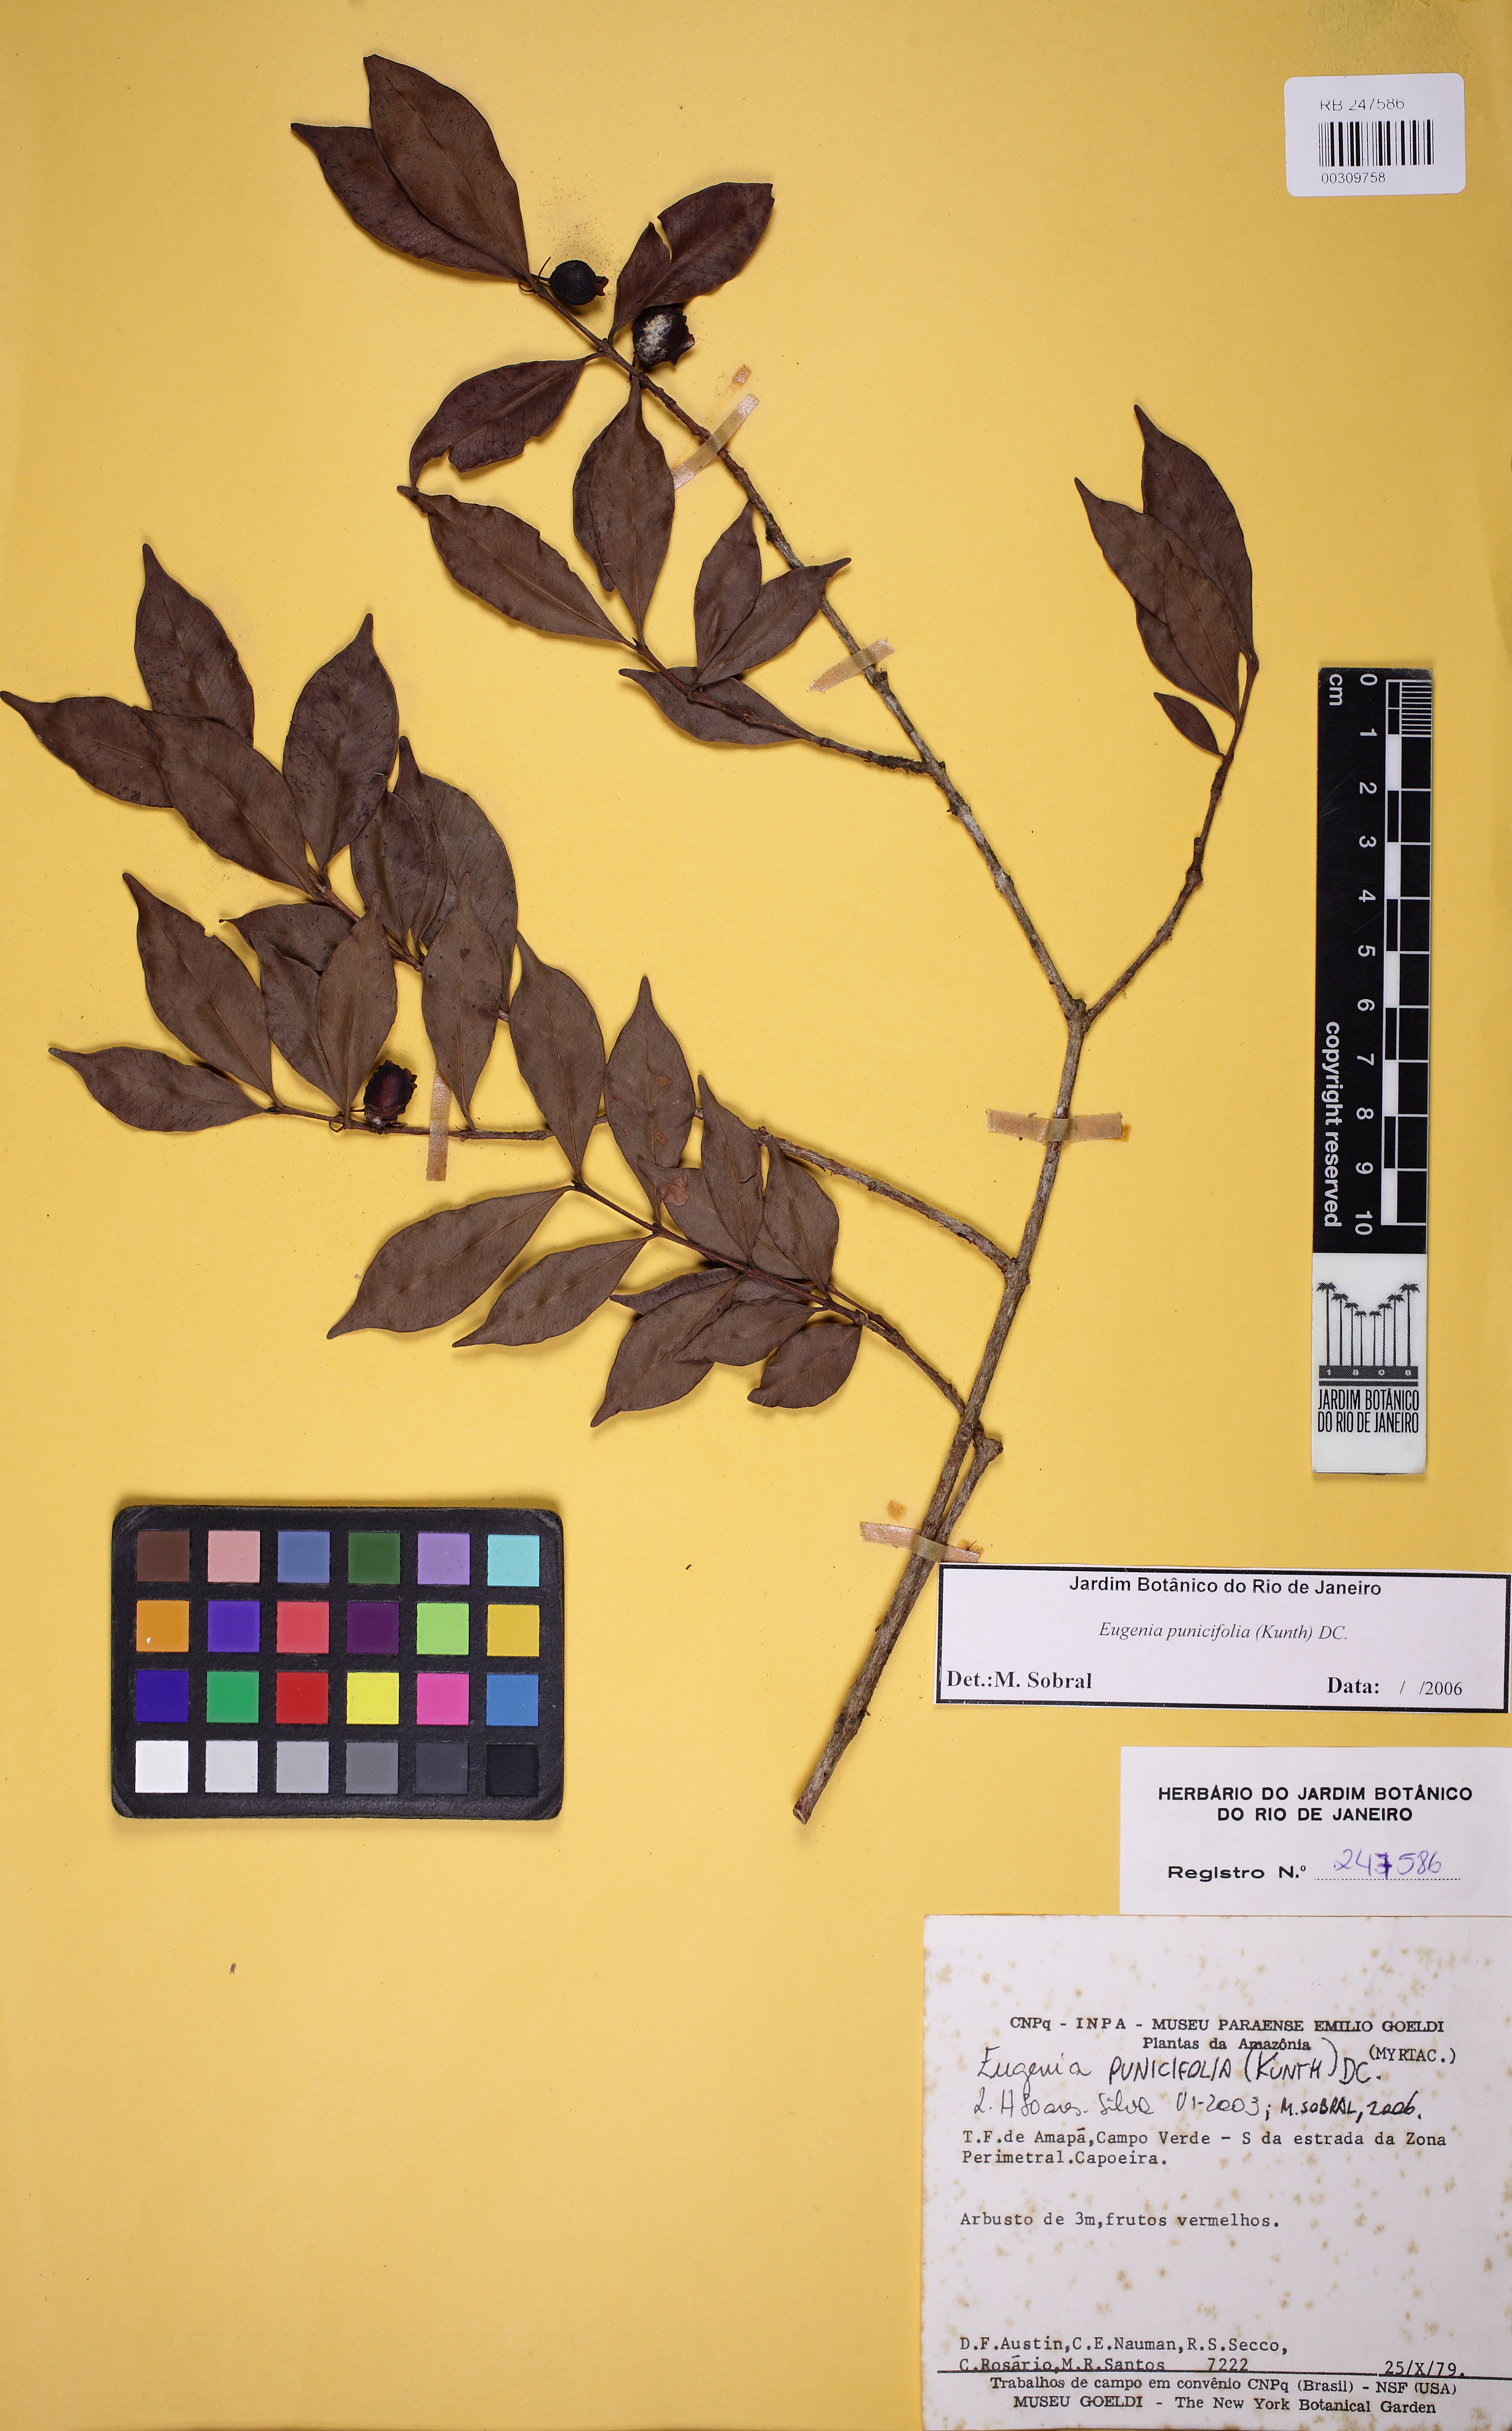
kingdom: Plantae
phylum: Tracheophyta
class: Magnoliopsida
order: Myrtales
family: Myrtaceae
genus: Eugenia
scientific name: Eugenia punicifolia
